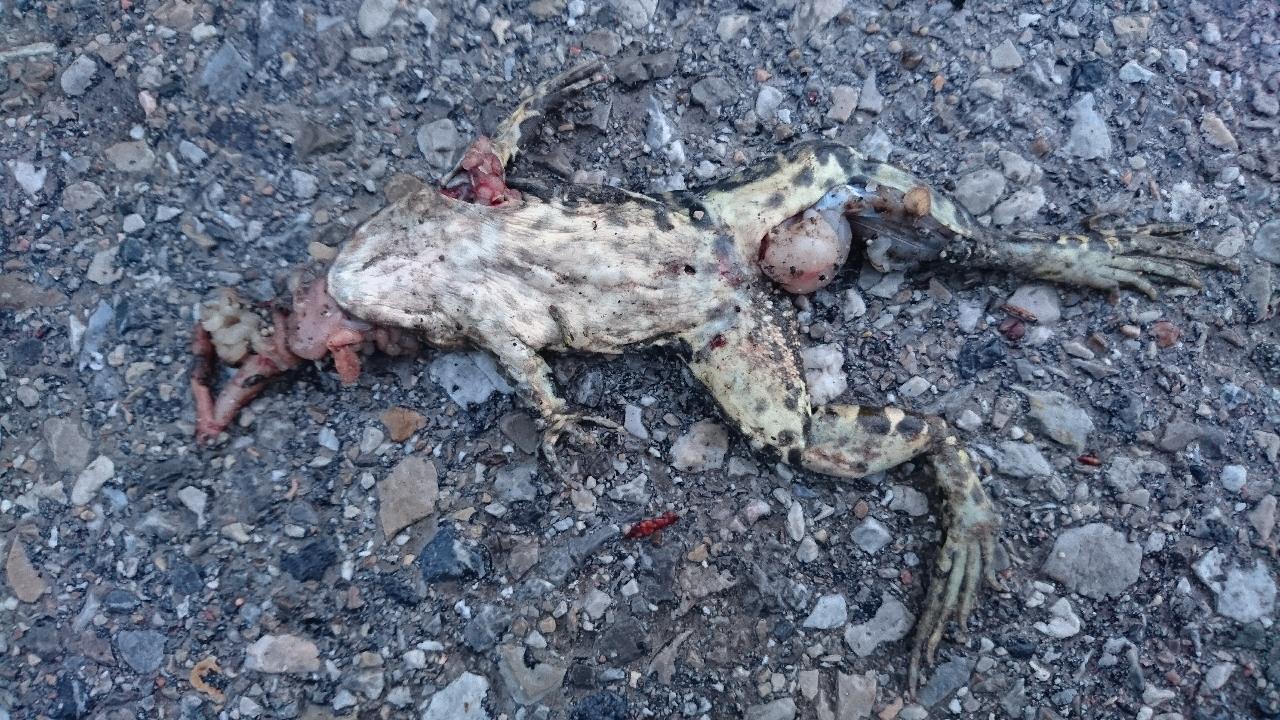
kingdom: Animalia
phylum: Chordata
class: Amphibia
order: Anura
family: Ranidae
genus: Pelophylax
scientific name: Pelophylax
